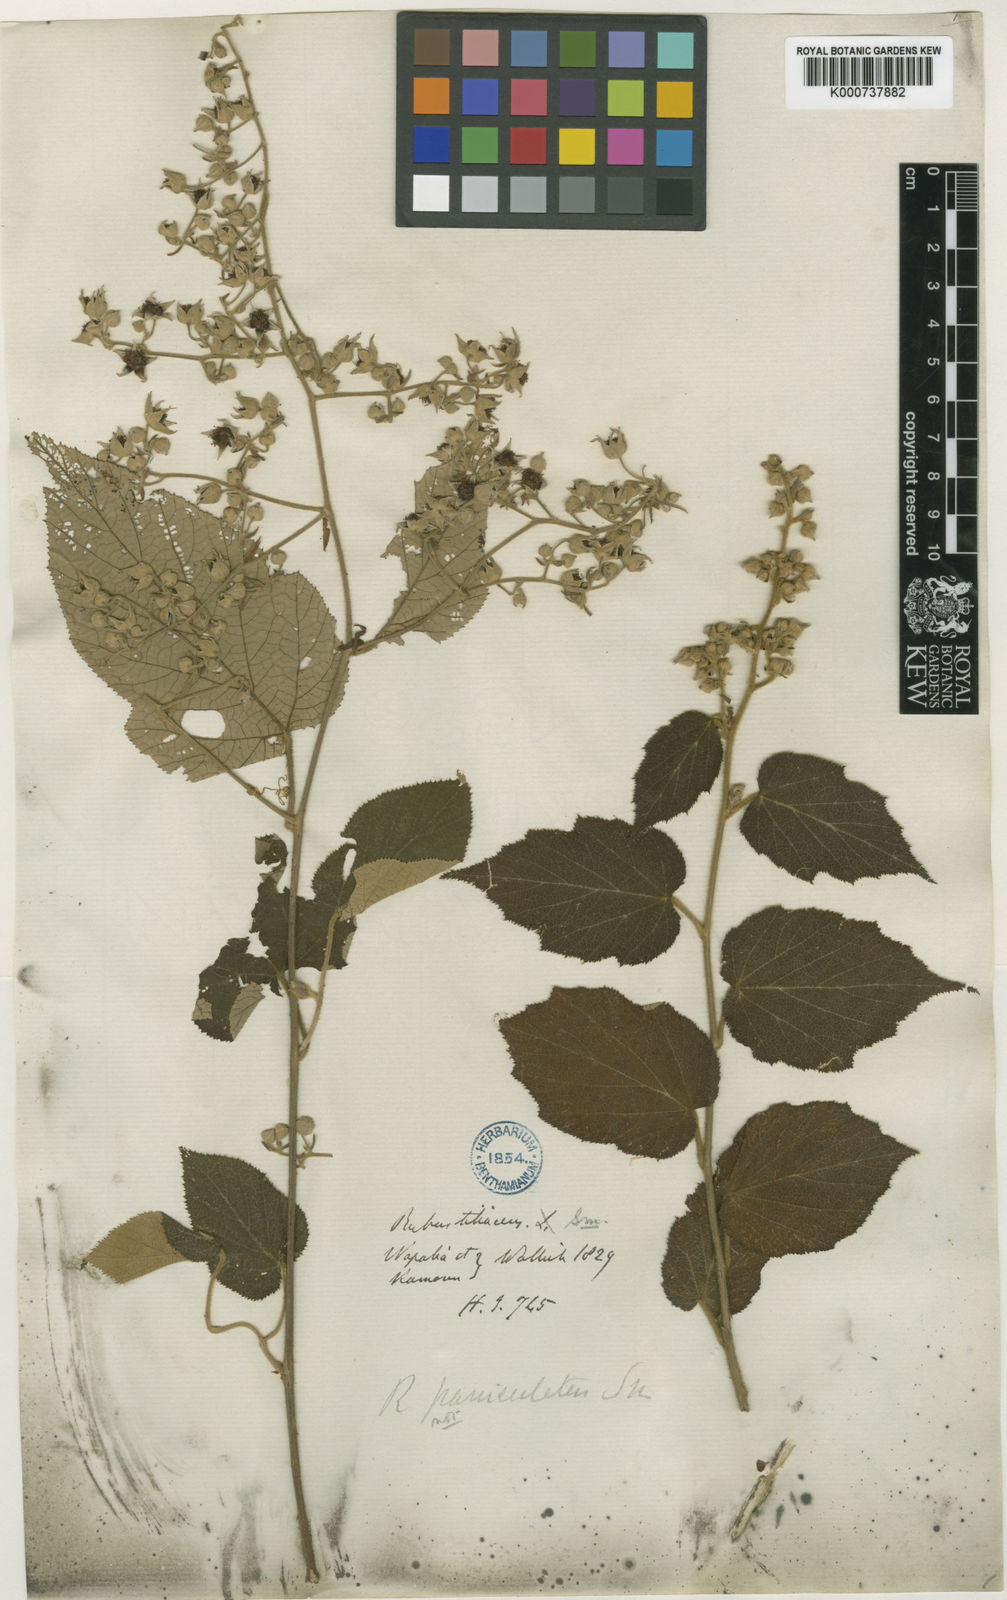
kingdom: Plantae
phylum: Tracheophyta
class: Magnoliopsida
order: Rosales
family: Rosaceae
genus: Rubus
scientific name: Rubus paniculatus
